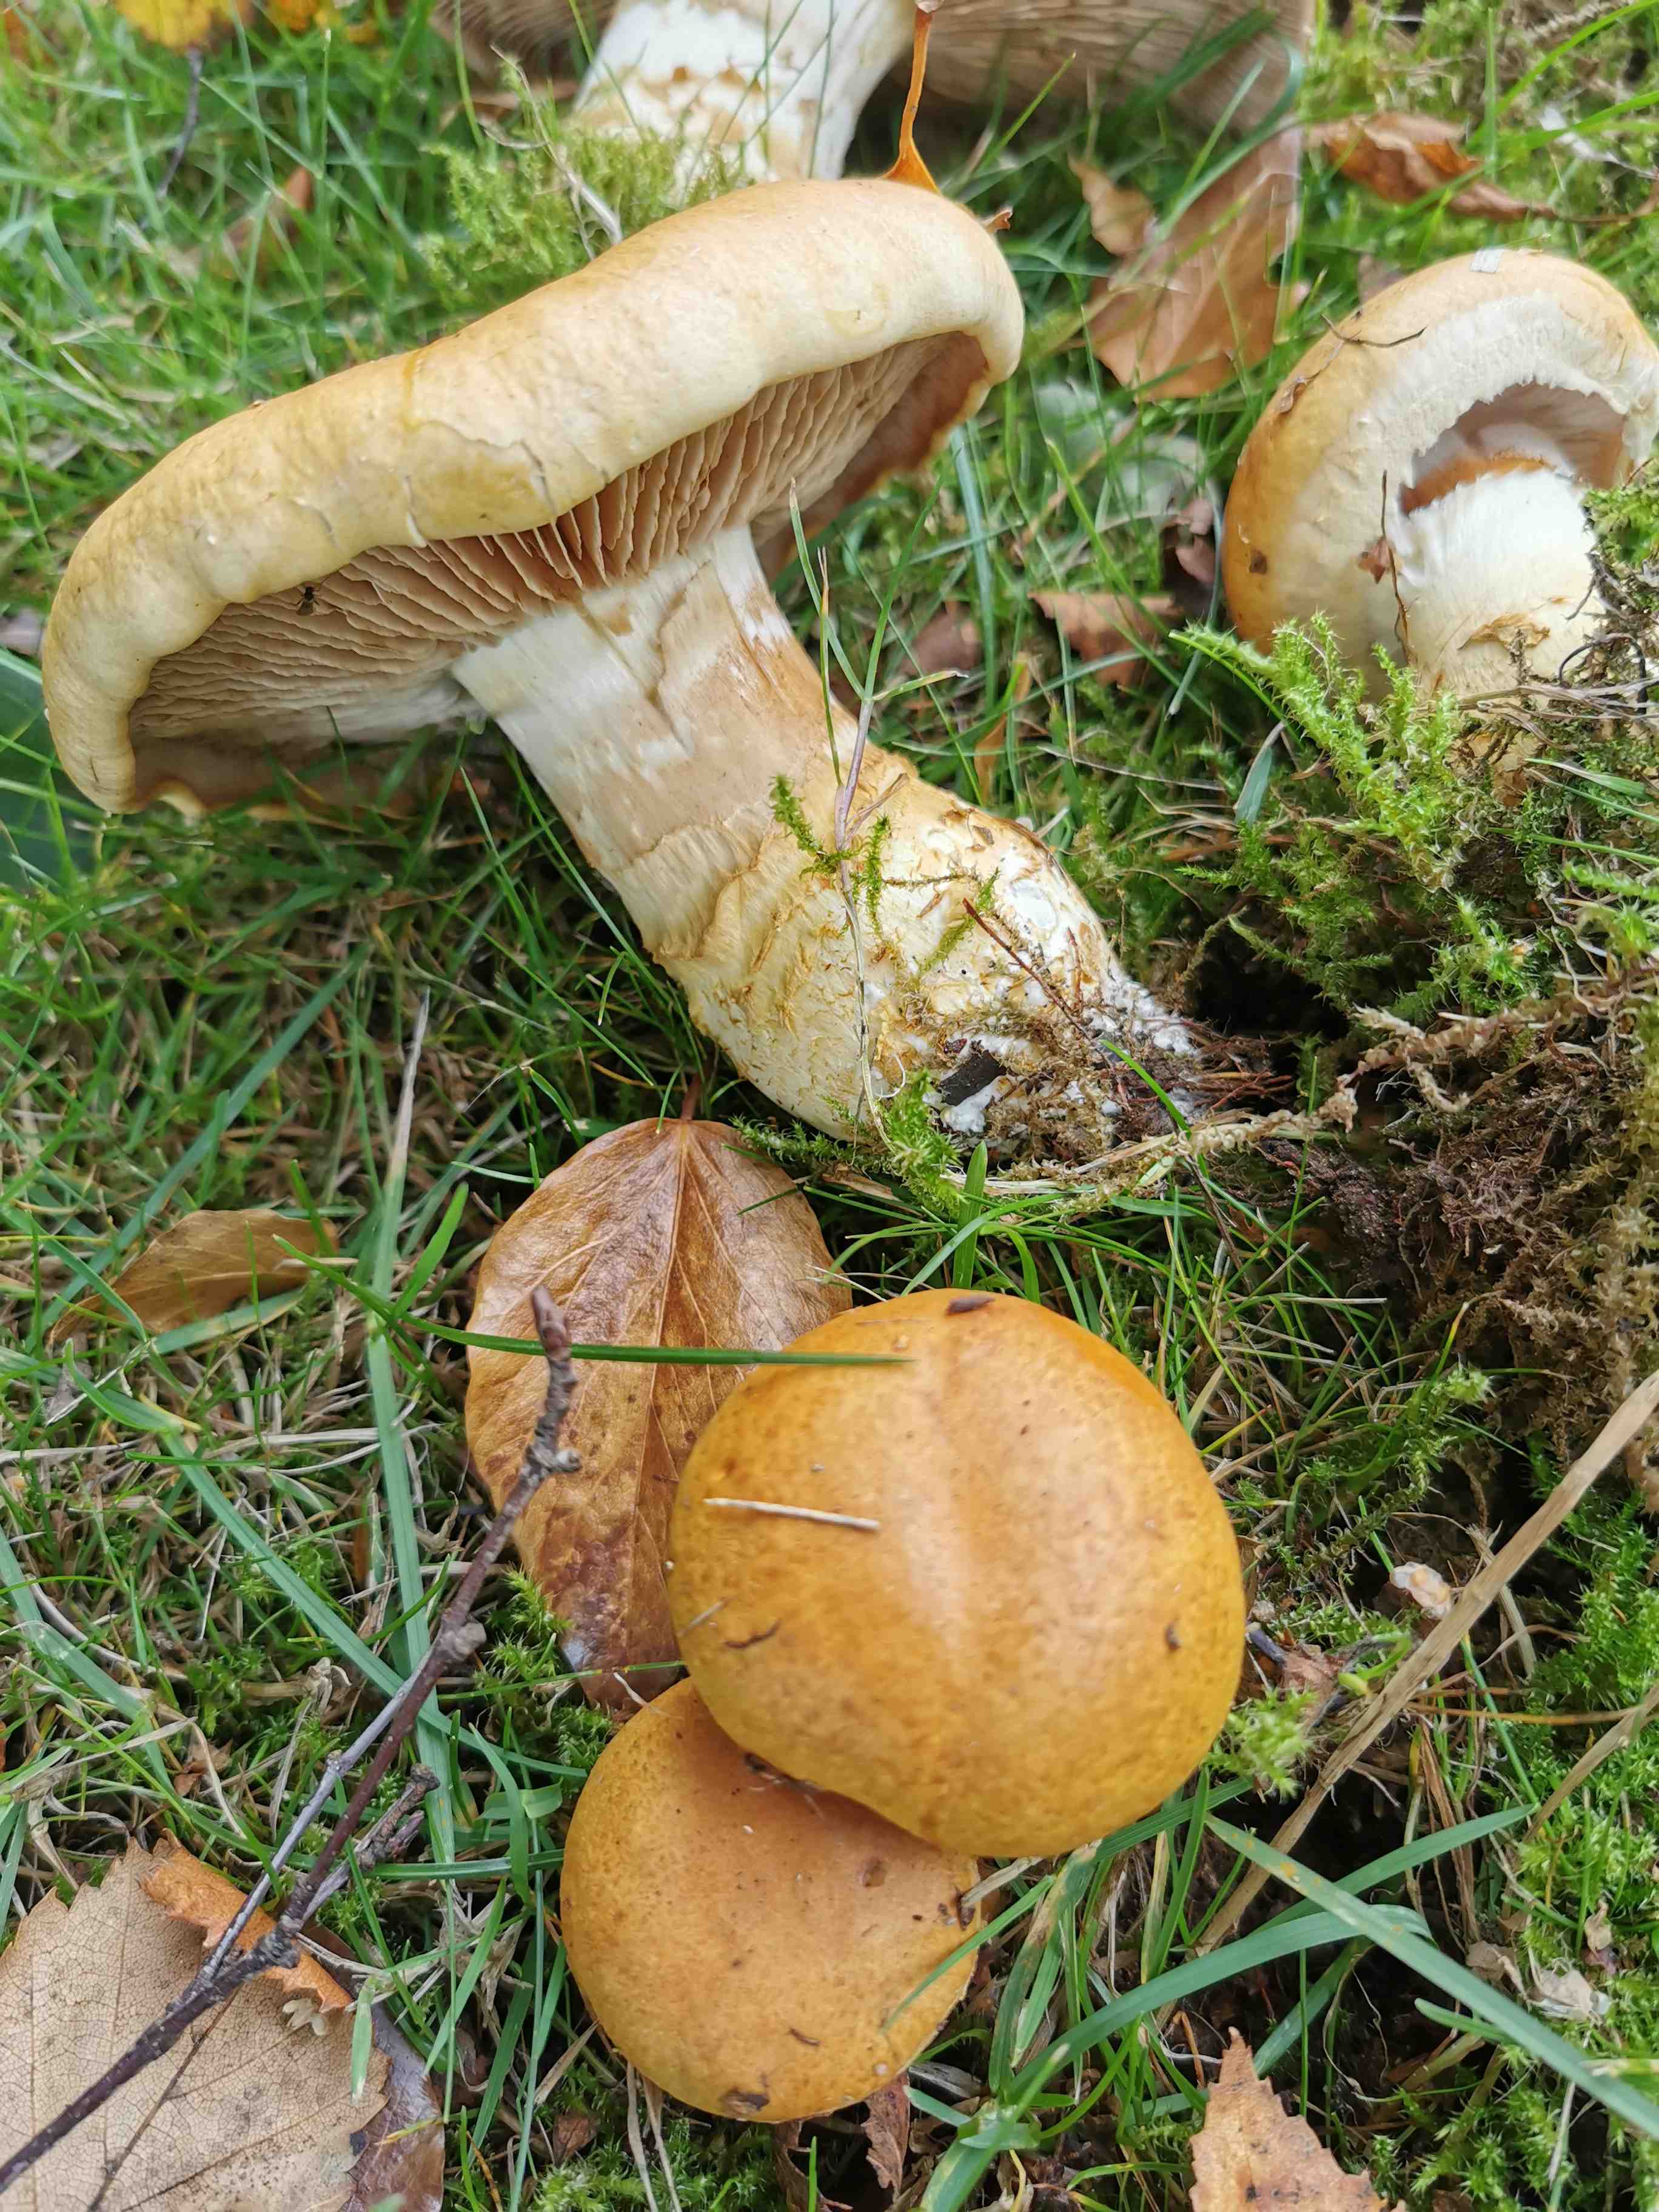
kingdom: Fungi
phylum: Basidiomycota
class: Agaricomycetes
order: Agaricales
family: Cortinariaceae
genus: Phlegmacium
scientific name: Phlegmacium triumphans
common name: gulbæltet slørhat
